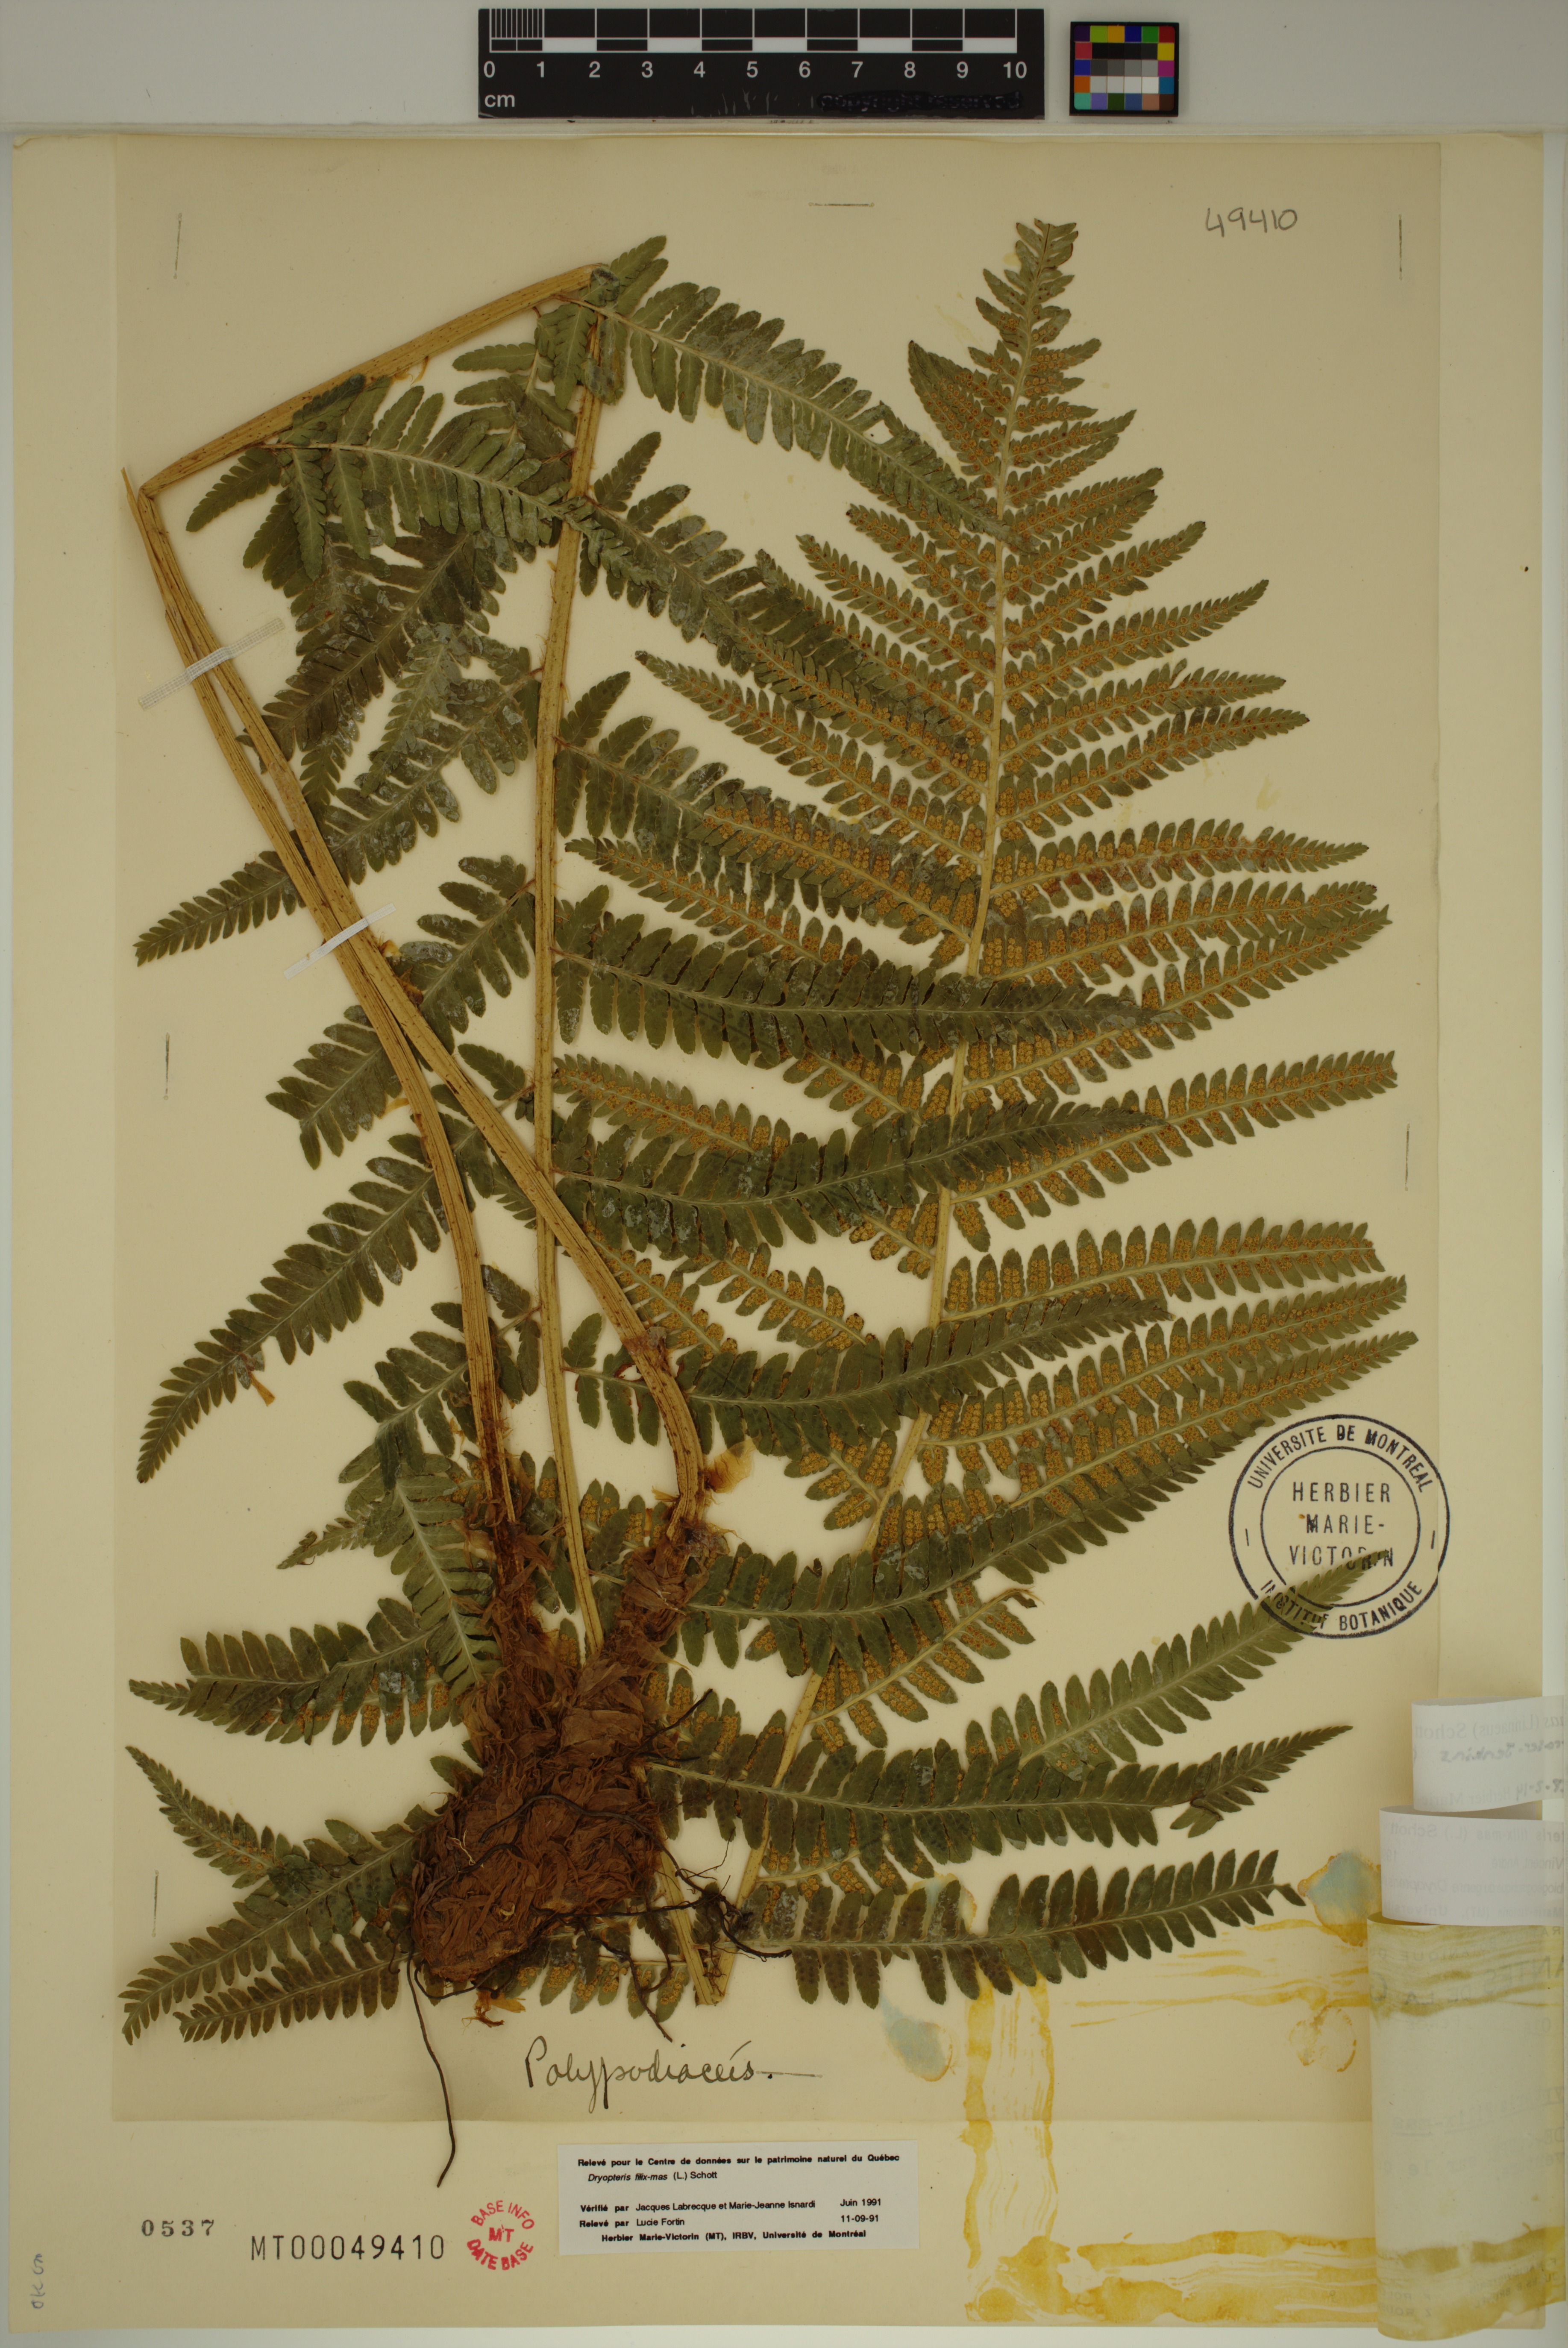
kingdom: Plantae
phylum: Tracheophyta
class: Polypodiopsida
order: Polypodiales
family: Dryopteridaceae
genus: Dryopteris
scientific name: Dryopteris filix-mas
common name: Male fern
